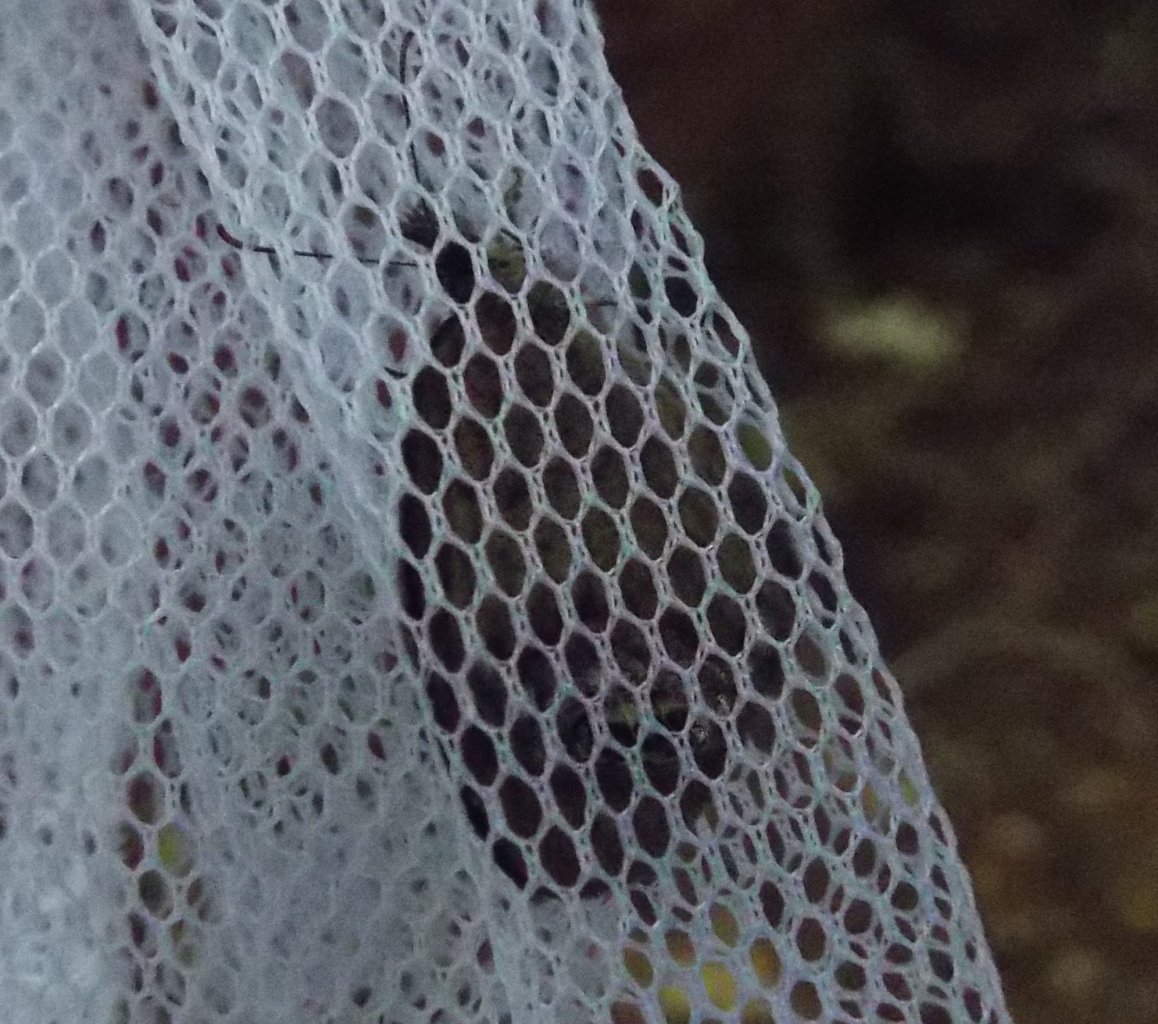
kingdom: Animalia
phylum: Arthropoda
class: Insecta
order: Lepidoptera
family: Nymphalidae
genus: Euptychia
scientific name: Euptychia cornelius
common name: Gemmed Satyr
